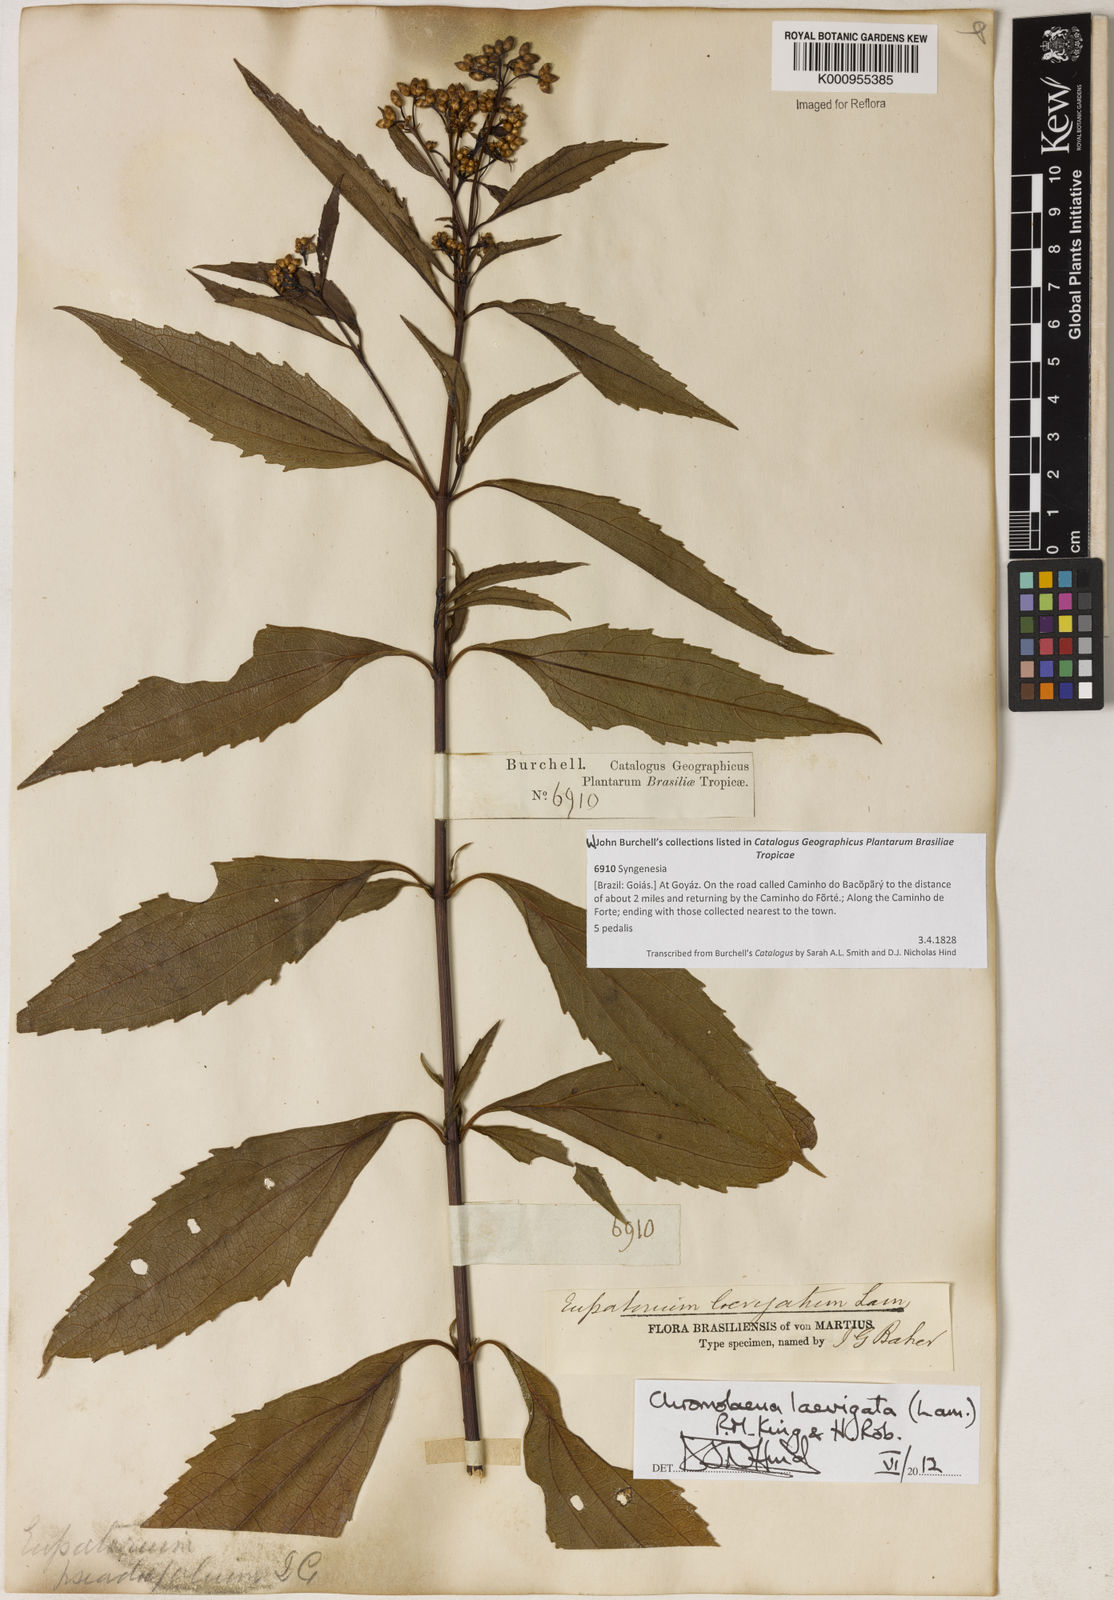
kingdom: Plantae
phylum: Tracheophyta
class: Magnoliopsida
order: Asterales
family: Asteraceae
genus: Chromolaena
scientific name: Chromolaena laevigata
